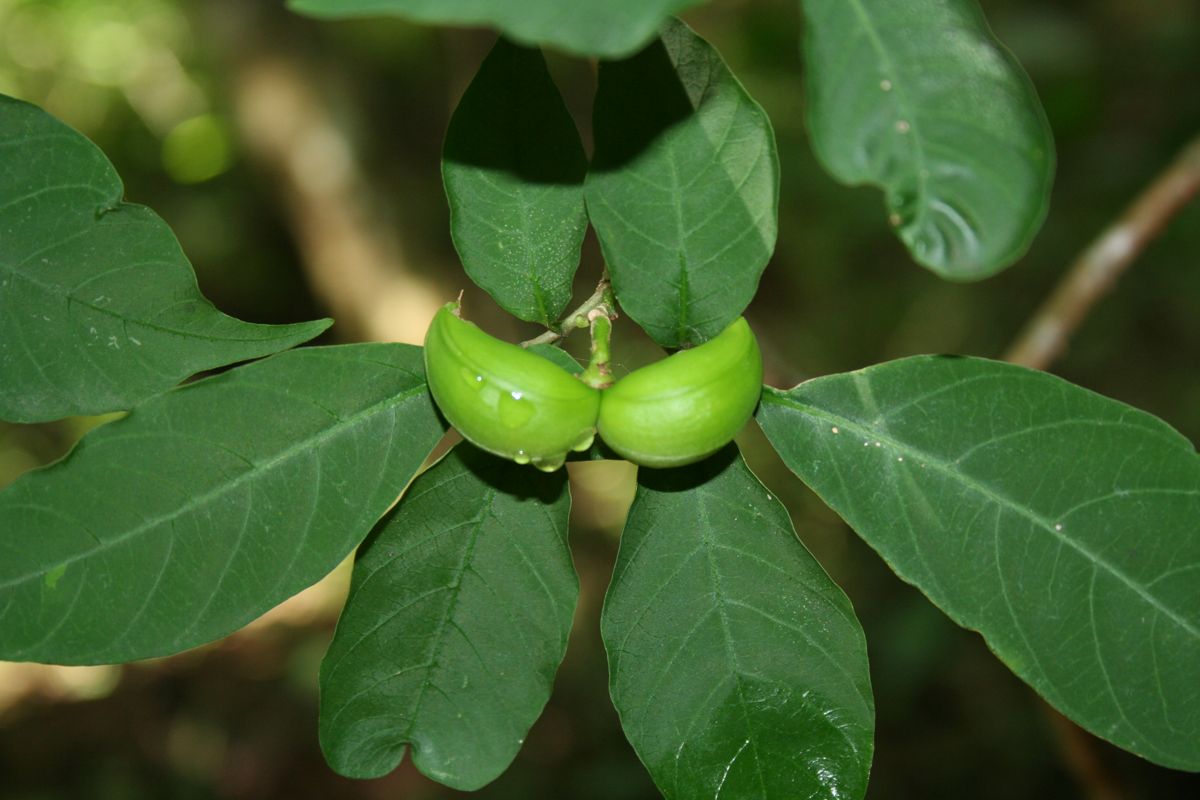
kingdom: Plantae
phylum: Tracheophyta
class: Magnoliopsida
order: Gentianales
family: Apocynaceae
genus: Tabernaemontana
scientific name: Tabernaemontana eubracteata
